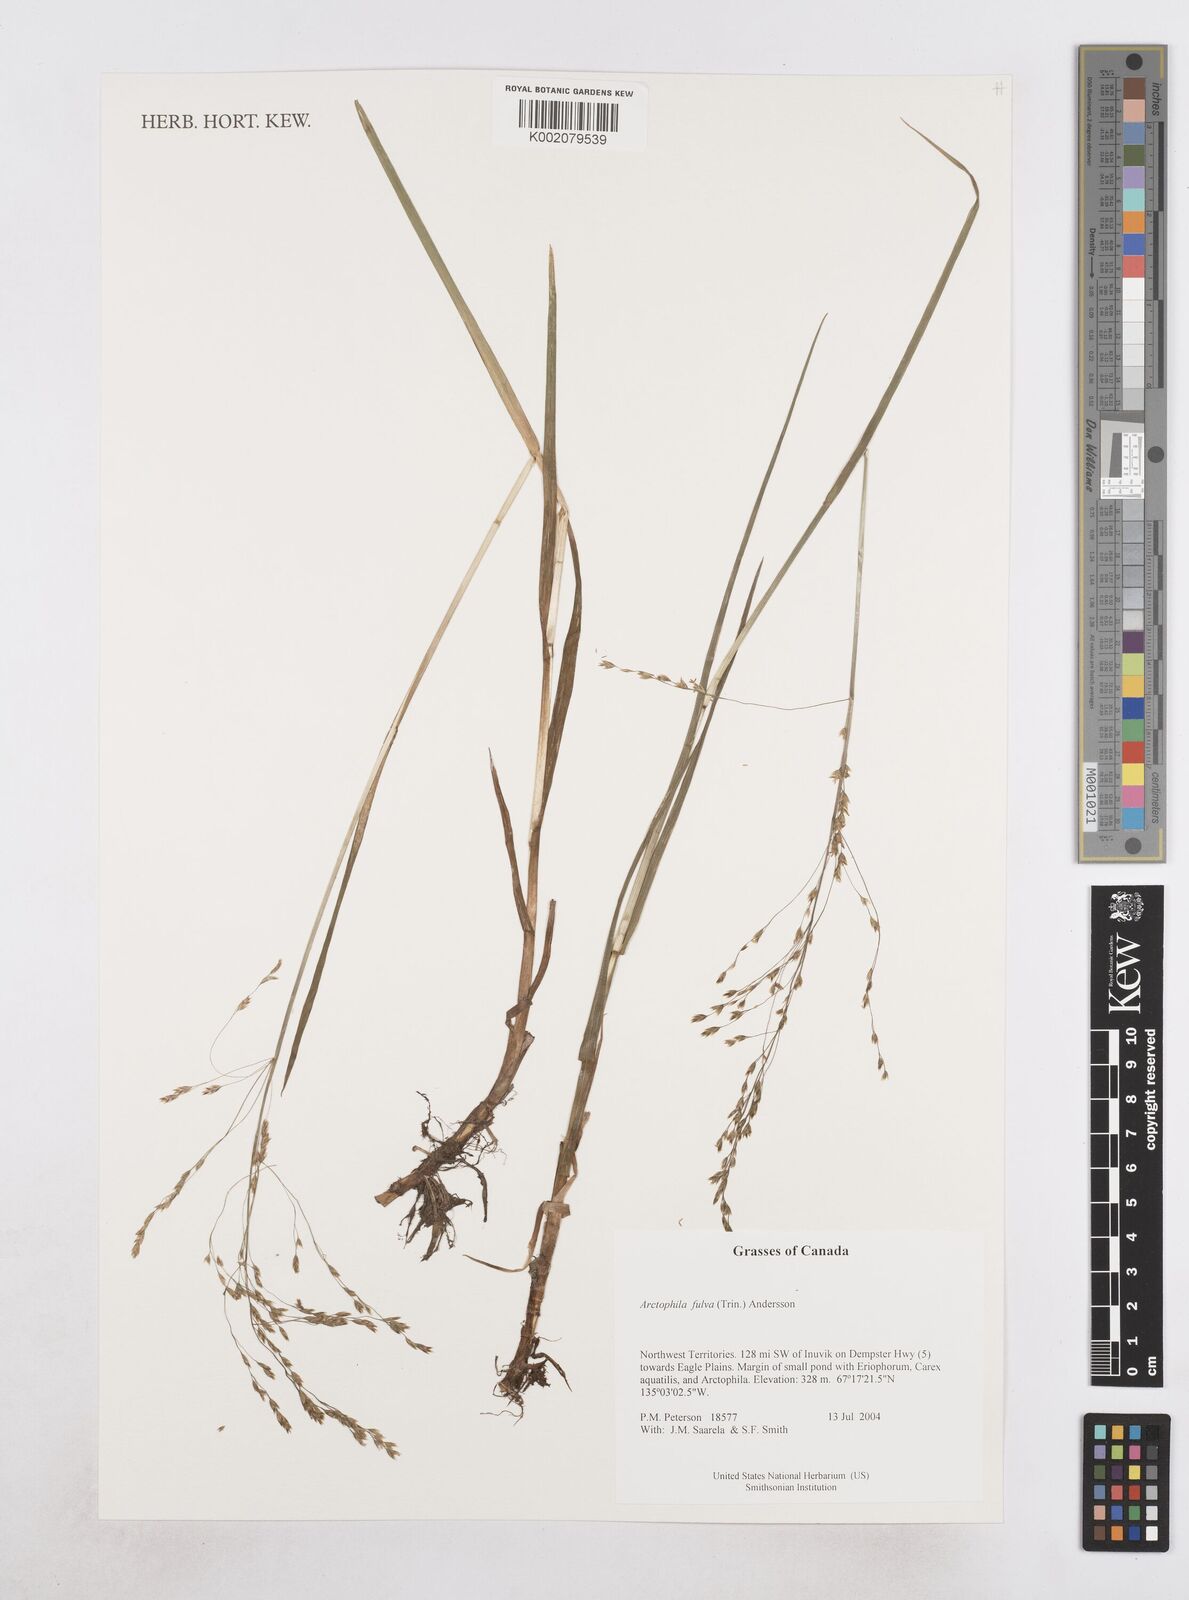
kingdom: Plantae
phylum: Tracheophyta
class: Liliopsida
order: Poales
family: Poaceae
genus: Dupontia
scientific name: Dupontia fulva
